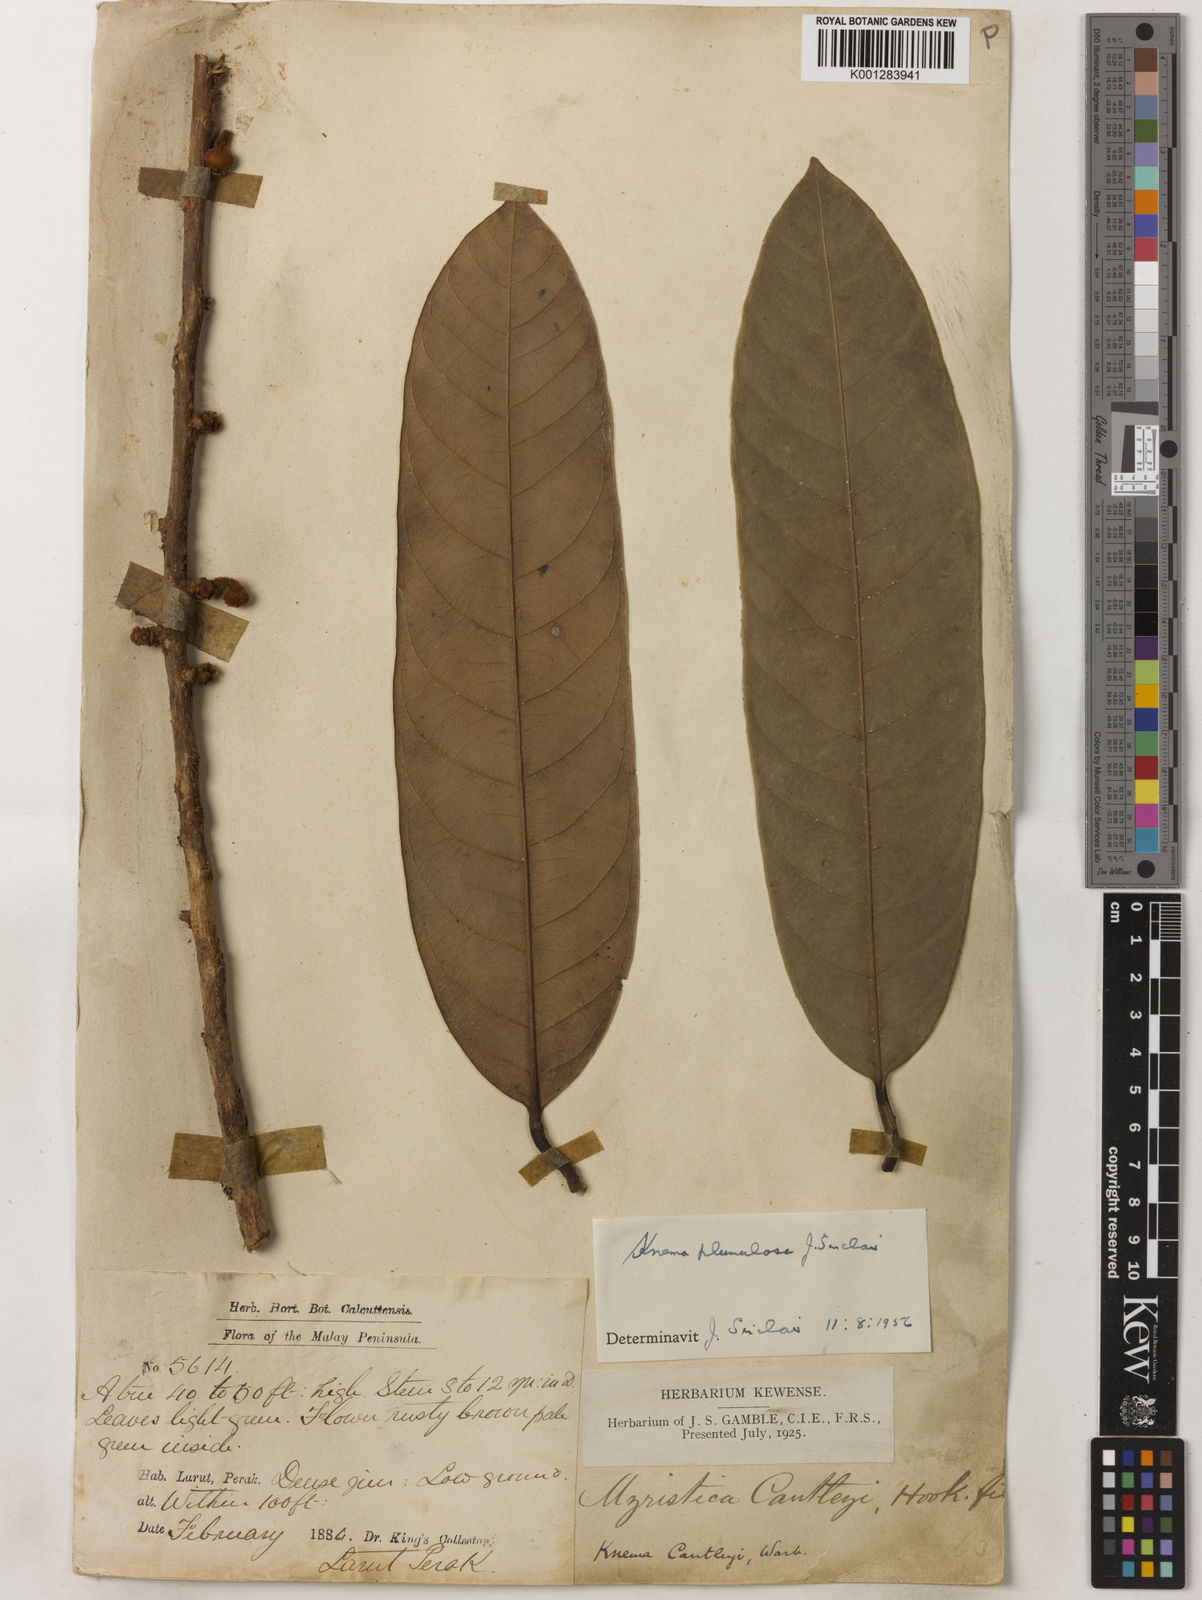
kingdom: Plantae
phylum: Tracheophyta
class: Magnoliopsida
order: Magnoliales
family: Myristicaceae
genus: Knema
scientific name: Knema plumulosa
